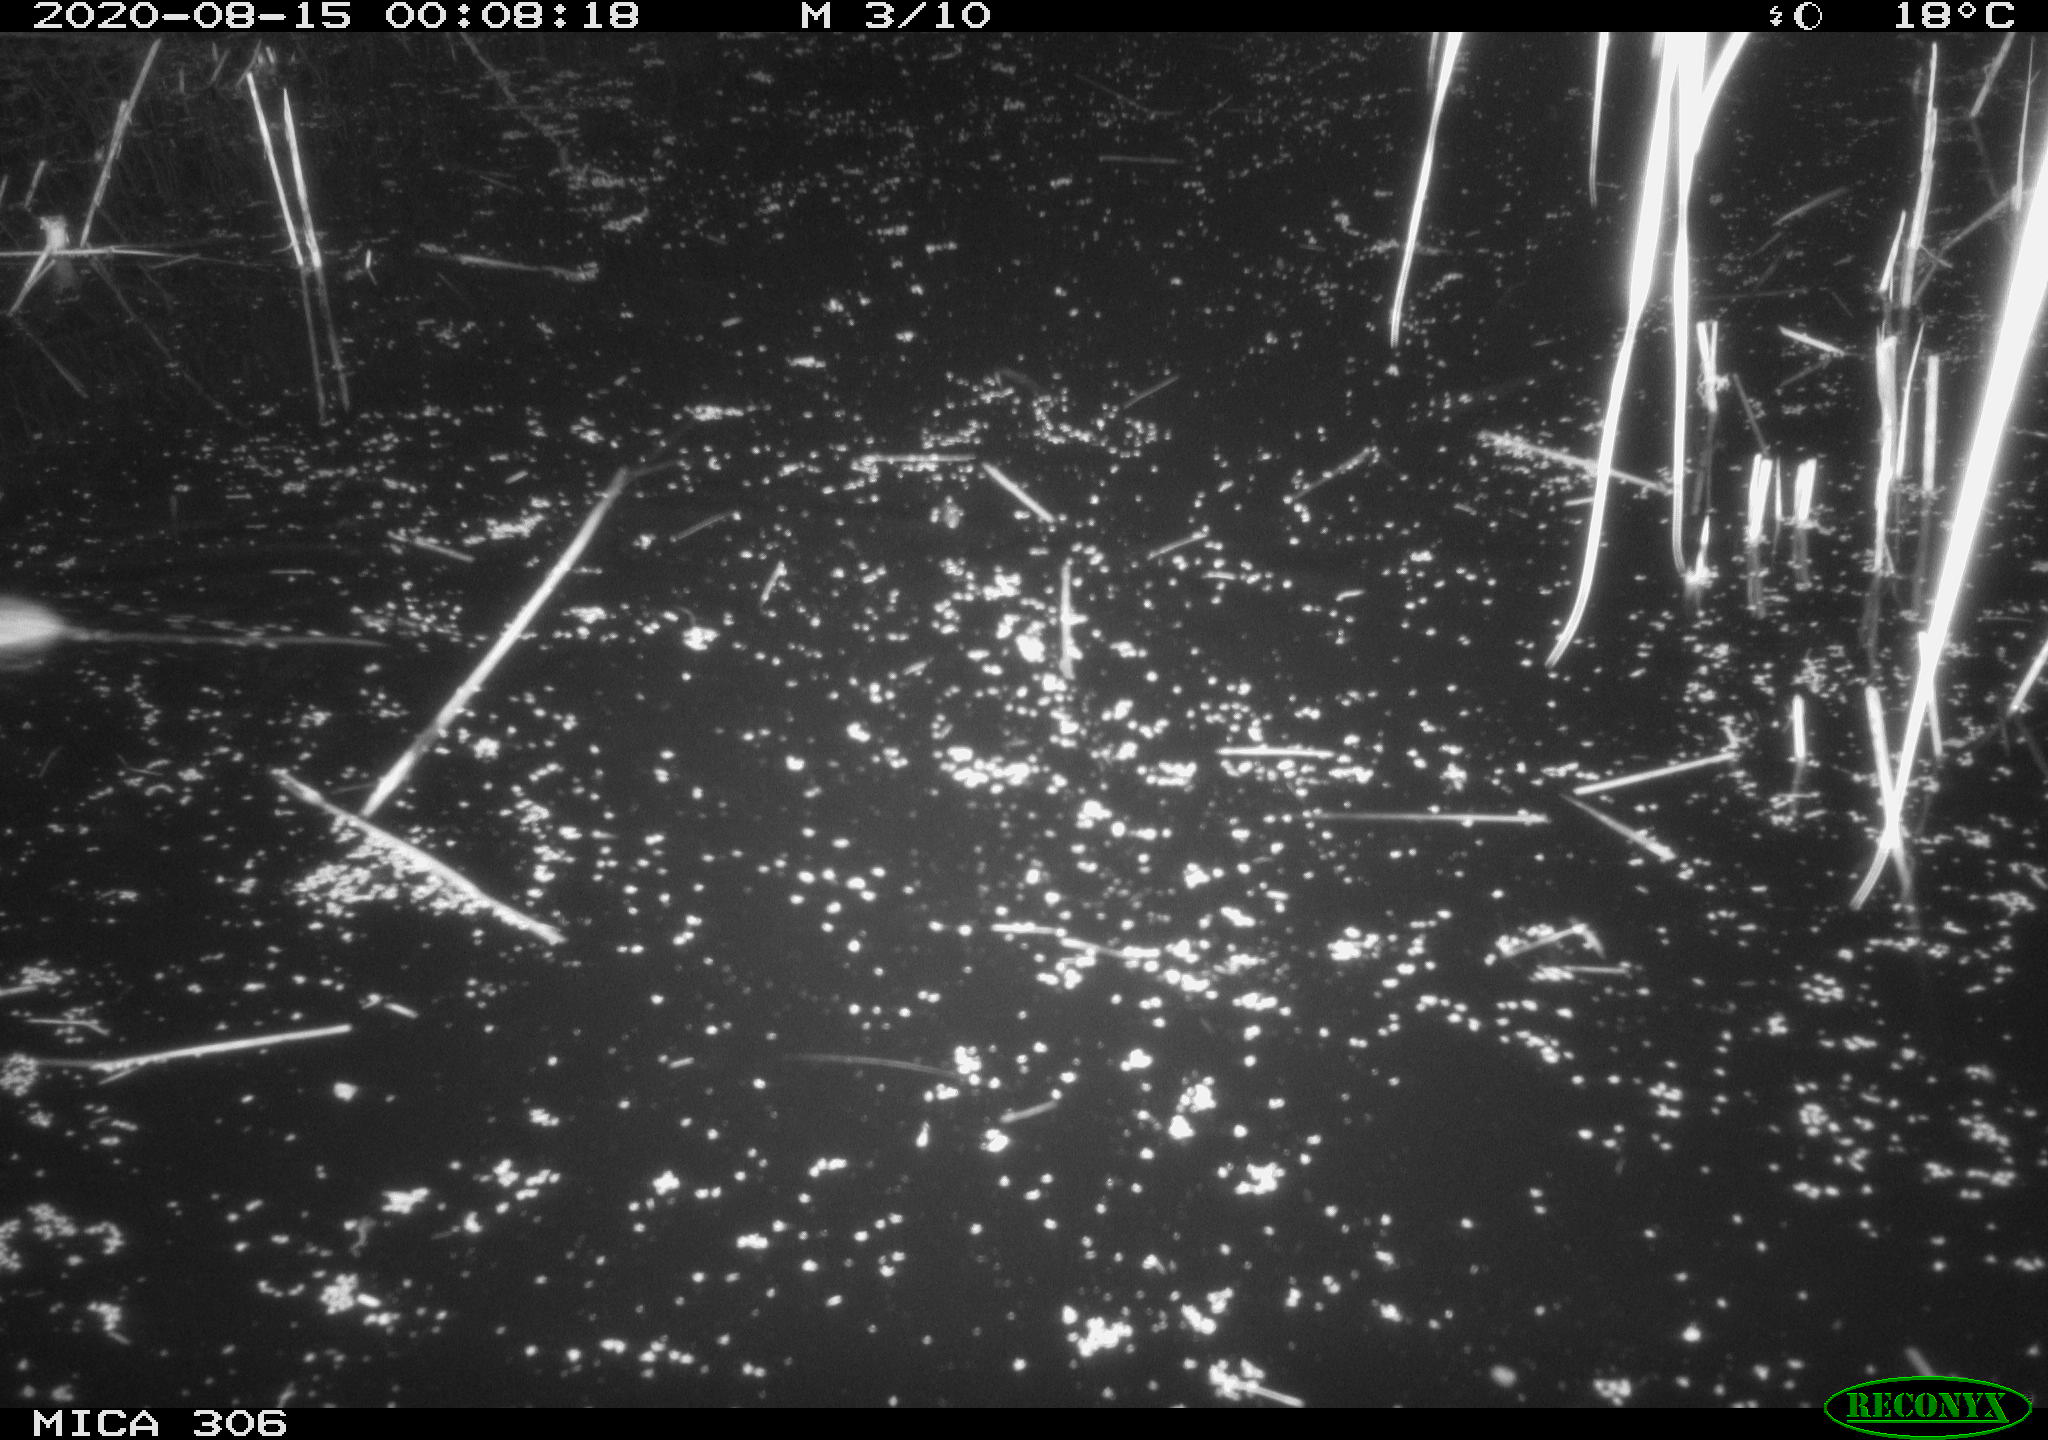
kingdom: Animalia
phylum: Chordata
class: Mammalia
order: Rodentia
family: Muridae
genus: Rattus
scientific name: Rattus norvegicus
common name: Brown rat
